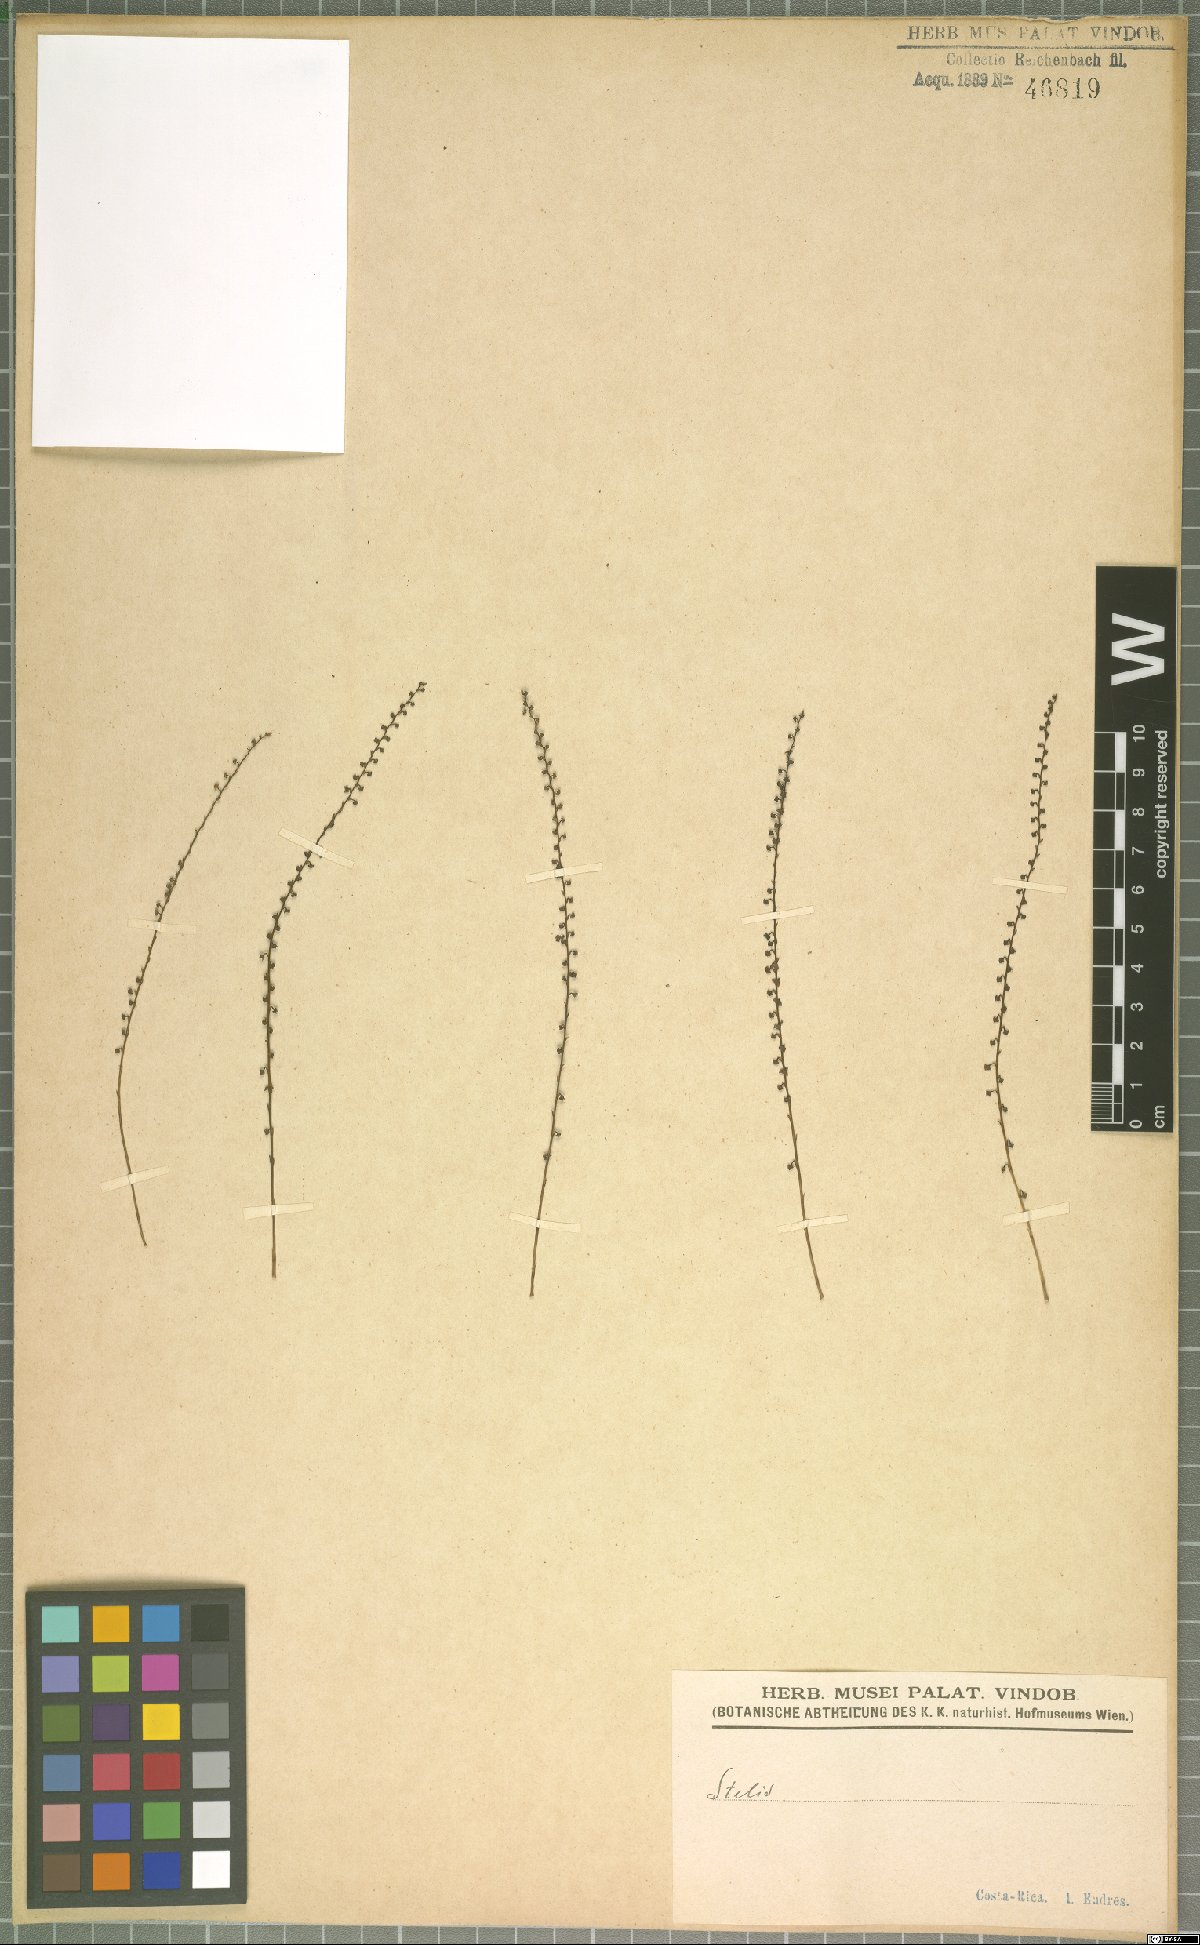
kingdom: Plantae
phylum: Tracheophyta
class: Liliopsida
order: Asparagales
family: Orchidaceae
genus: Stelis
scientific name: Stelis
